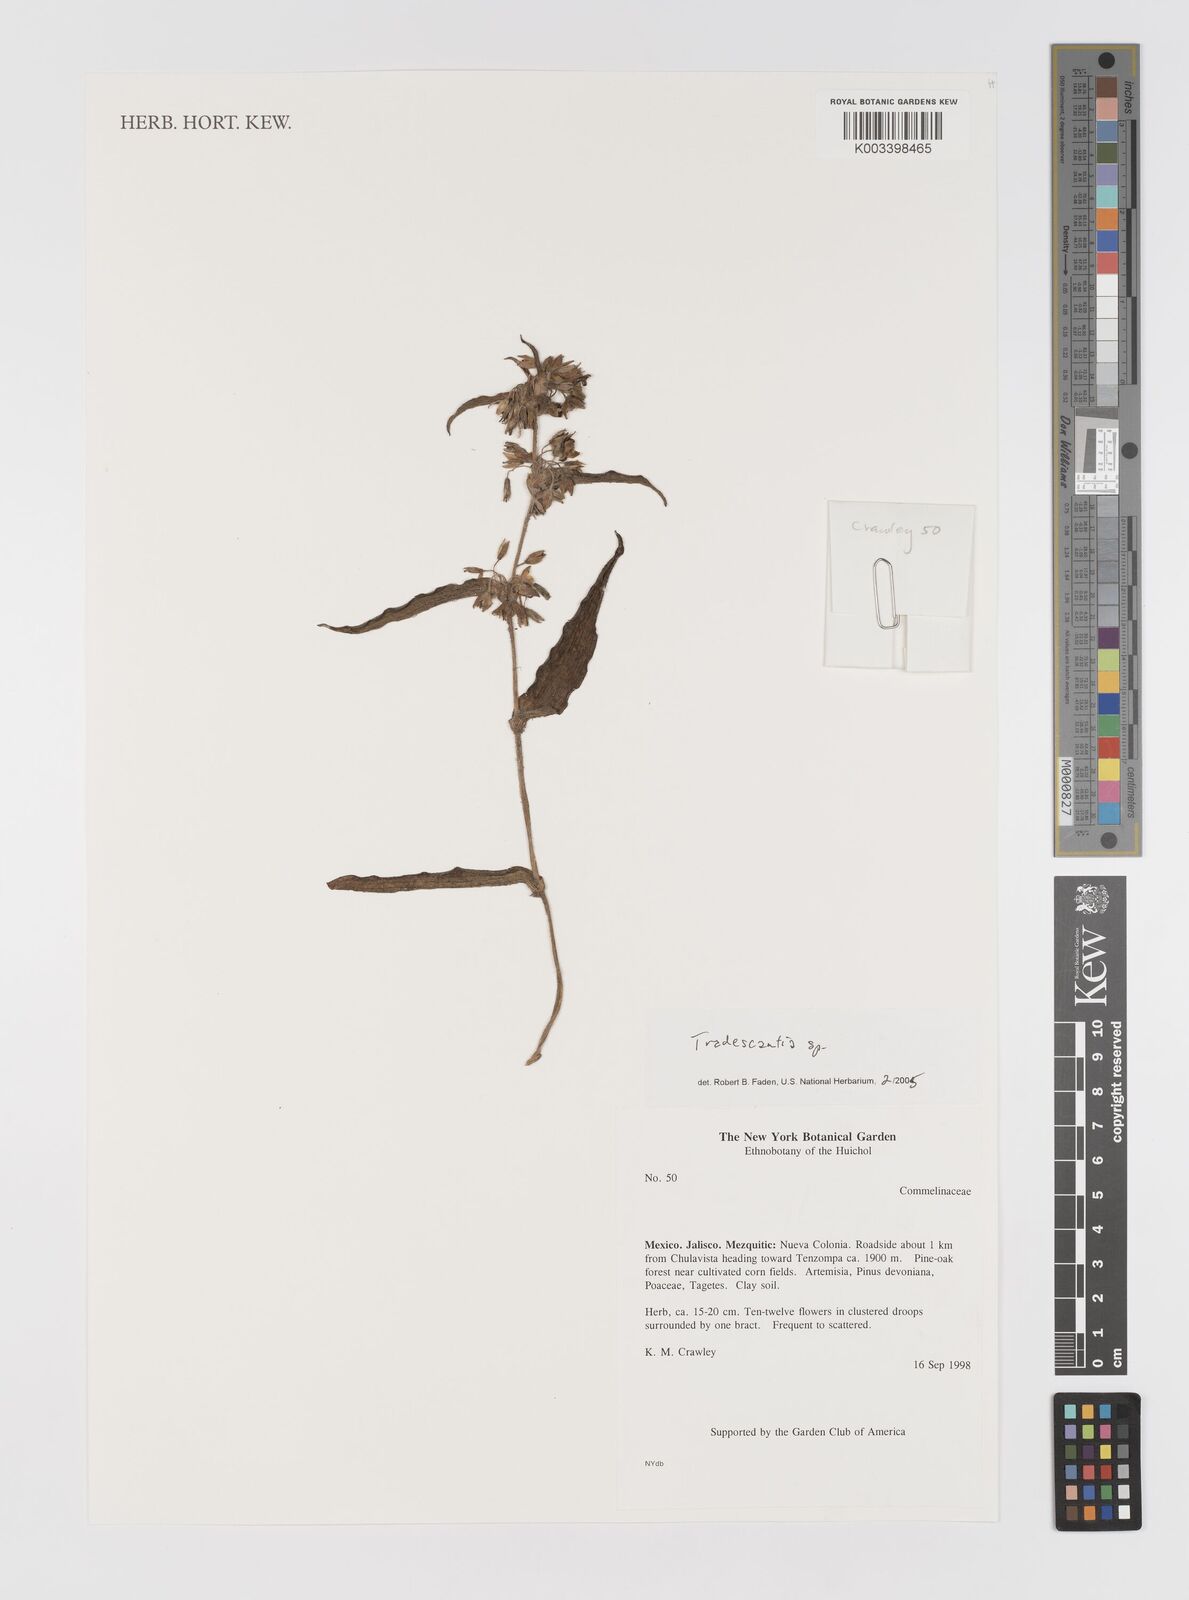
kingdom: Plantae
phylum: Tracheophyta
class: Liliopsida
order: Commelinales
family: Commelinaceae
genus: Tradescantia
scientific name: Tradescantia
